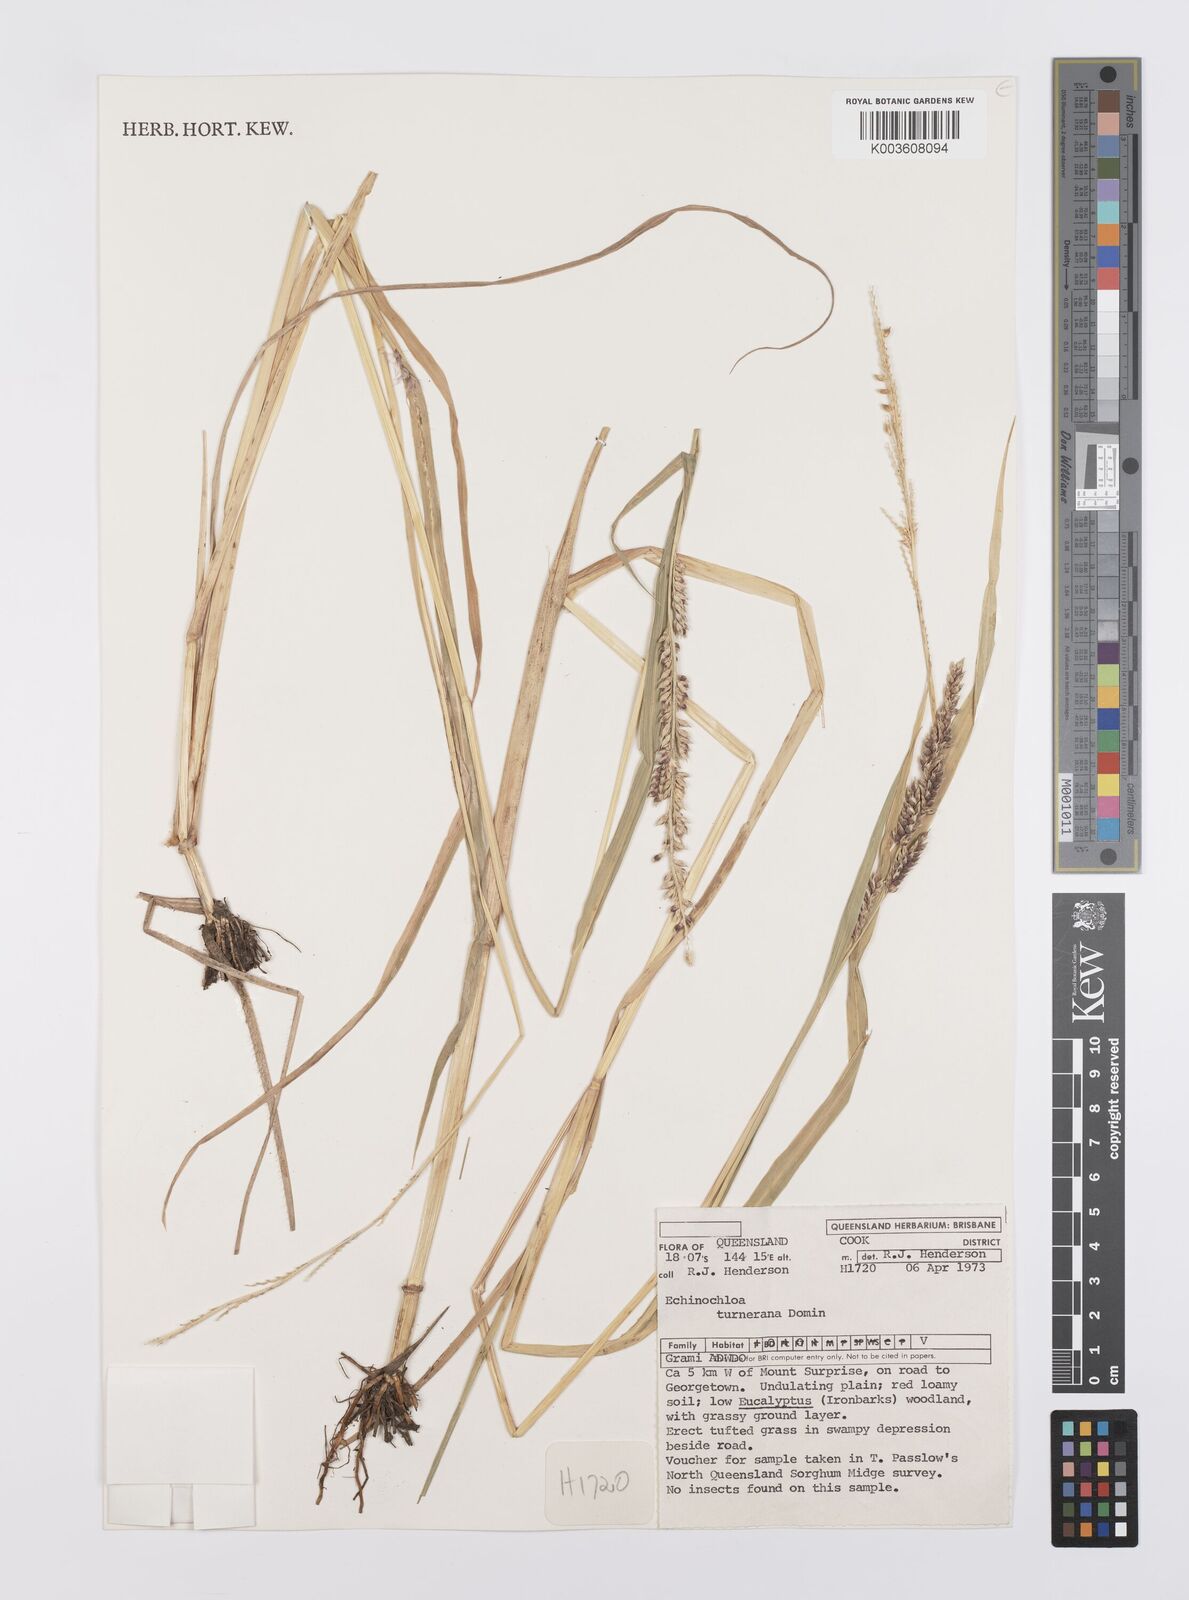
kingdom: Plantae
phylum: Tracheophyta
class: Liliopsida
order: Poales
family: Poaceae
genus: Echinochloa
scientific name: Echinochloa turneriana
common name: Channel millet
